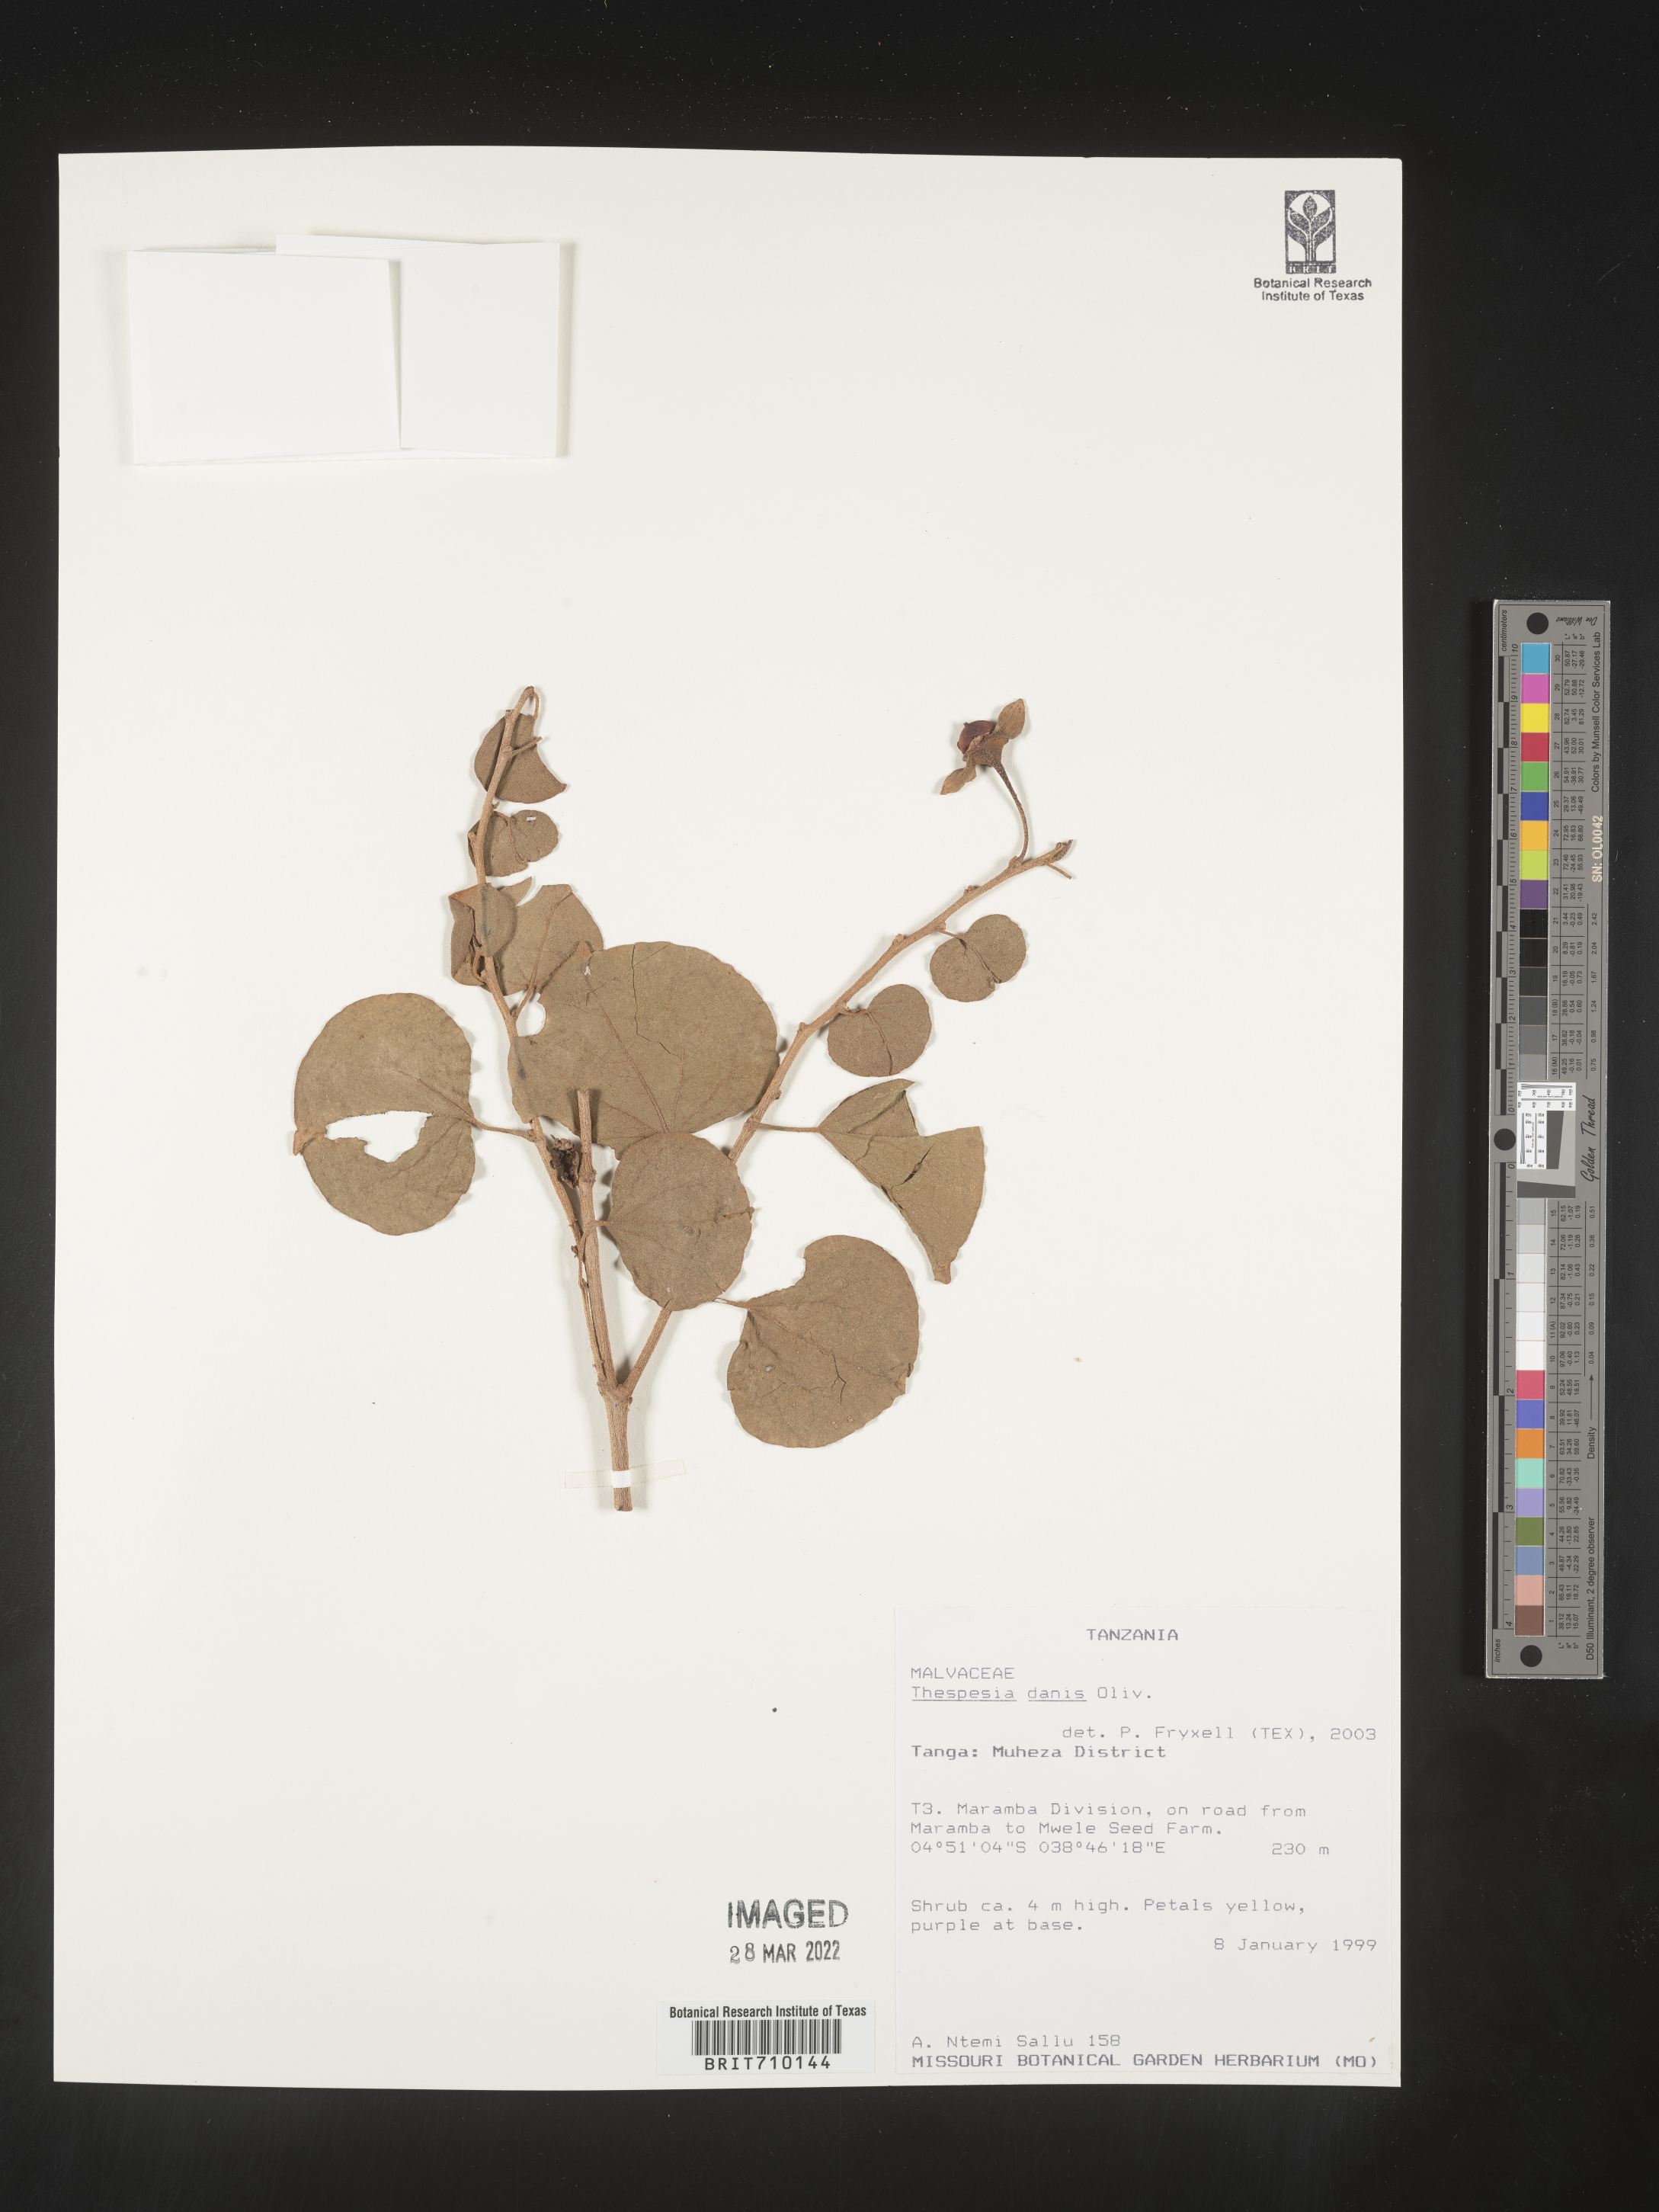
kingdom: Plantae
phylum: Tracheophyta
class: Magnoliopsida
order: Malvales
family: Malvaceae
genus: Thespesia
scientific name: Thespesia
